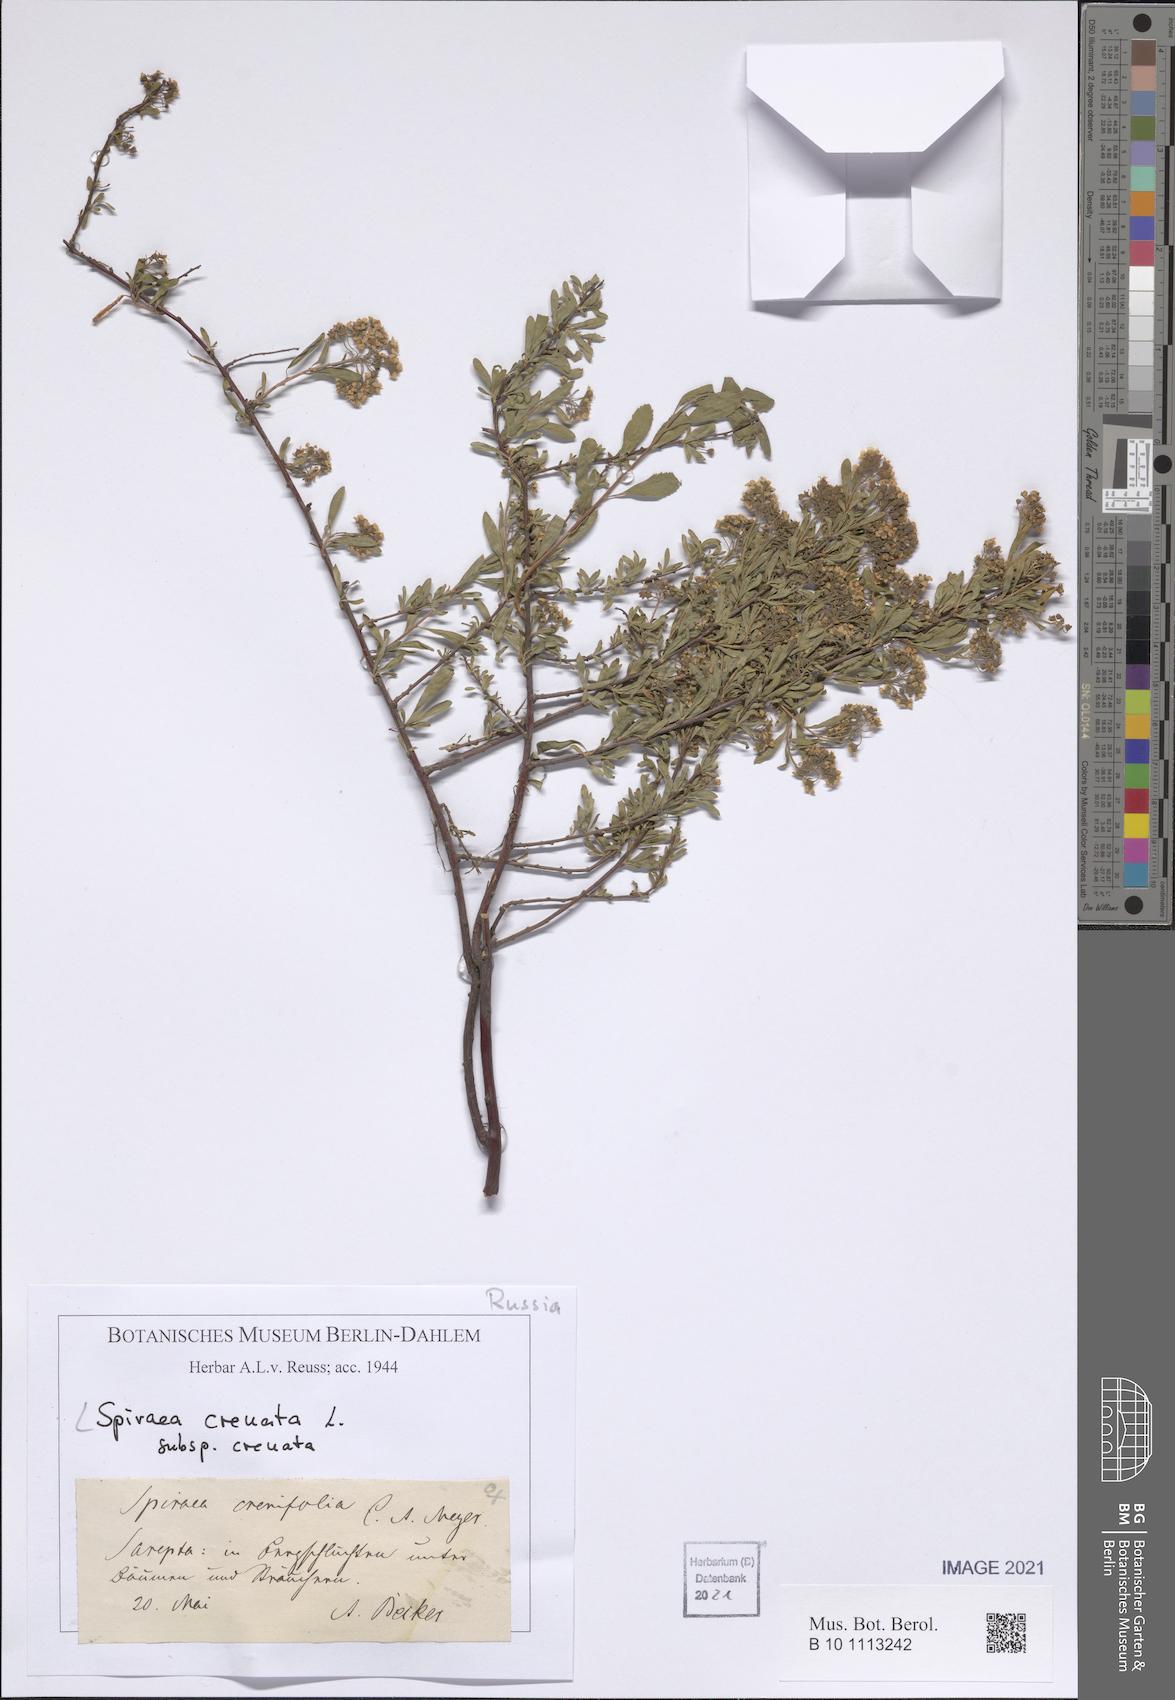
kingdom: Plantae
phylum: Tracheophyta
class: Magnoliopsida
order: Rosales
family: Rosaceae
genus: Spiraea
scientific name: Spiraea crenata
